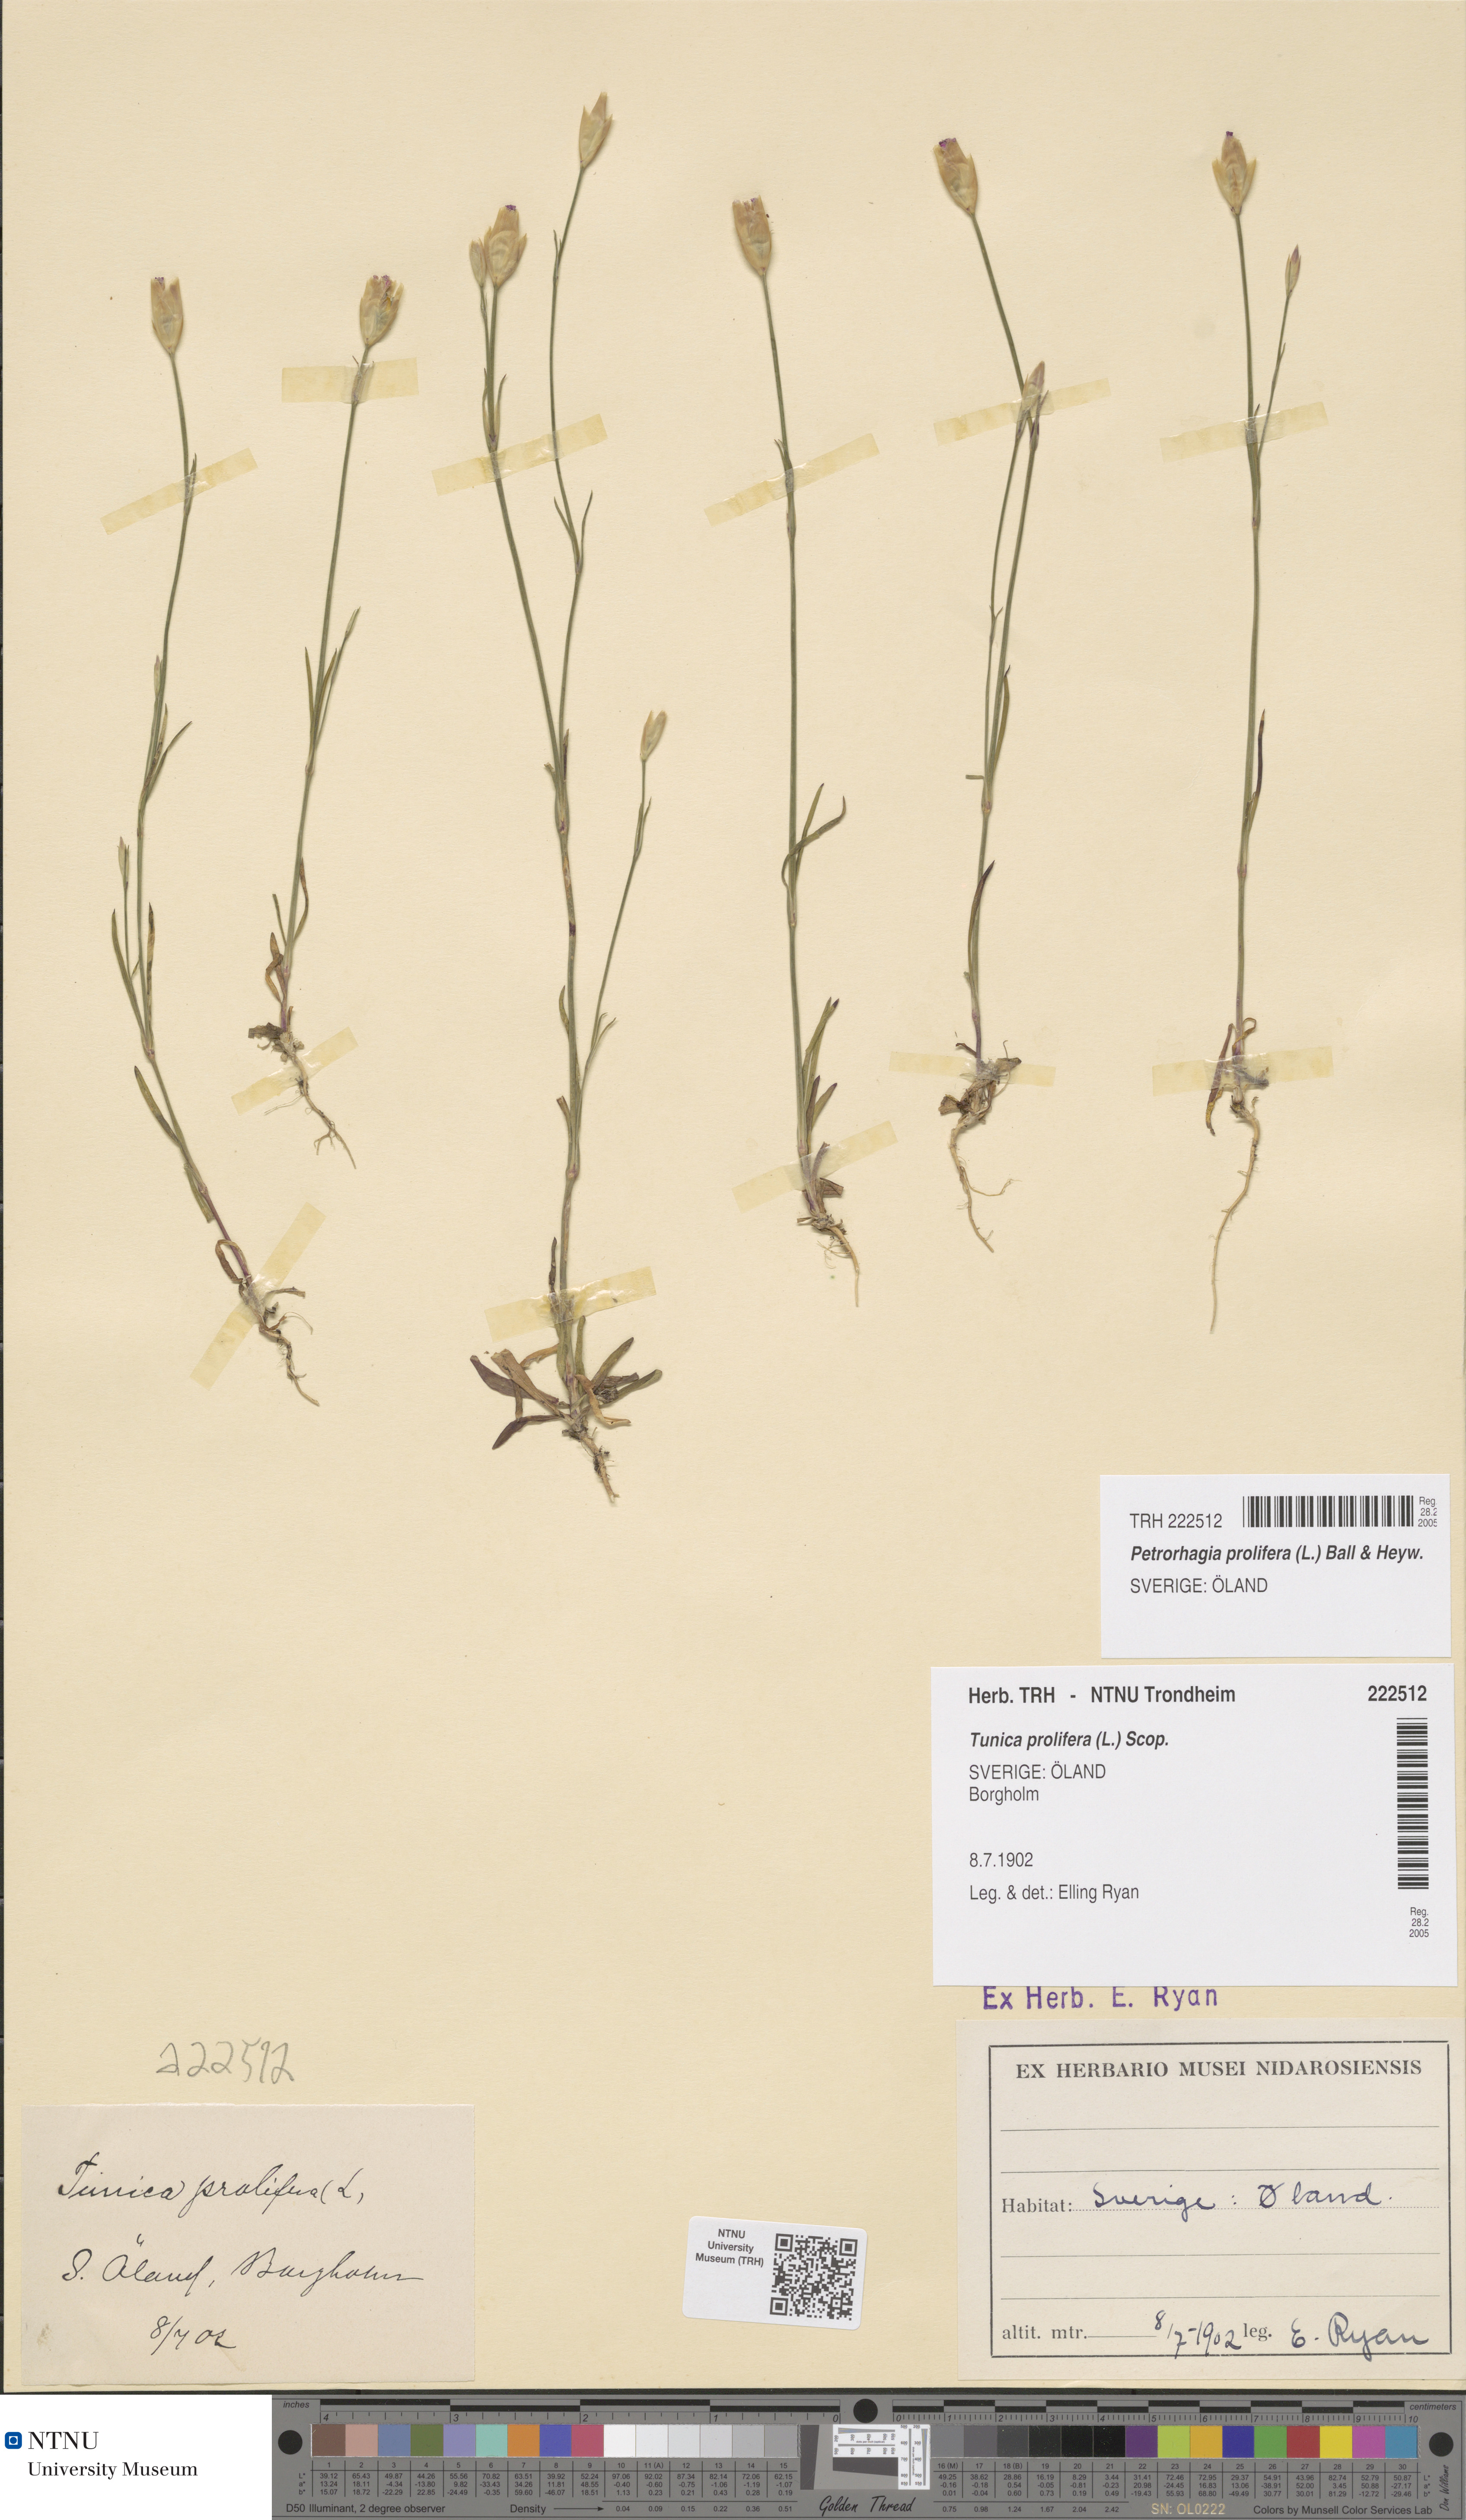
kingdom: Plantae
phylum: Tracheophyta
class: Magnoliopsida
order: Caryophyllales
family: Caryophyllaceae
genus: Petrorhagia
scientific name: Petrorhagia prolifera
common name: Proliferous pink
